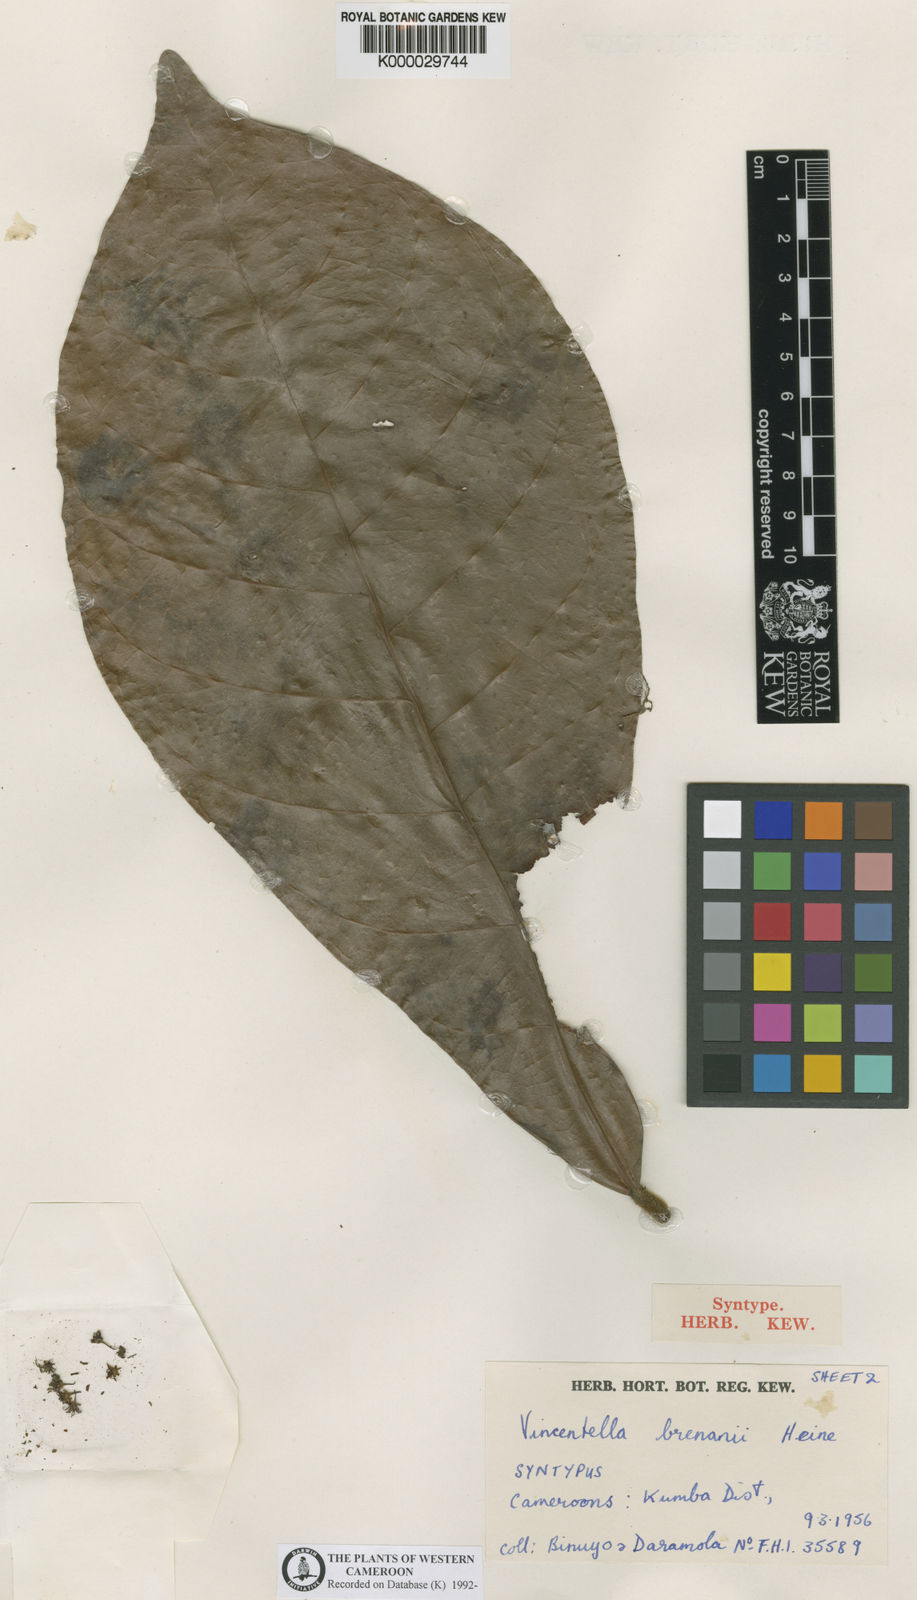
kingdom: Plantae
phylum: Tracheophyta
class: Magnoliopsida
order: Ericales
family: Sapotaceae
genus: Synsepalum
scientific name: Synsepalum brenanii
